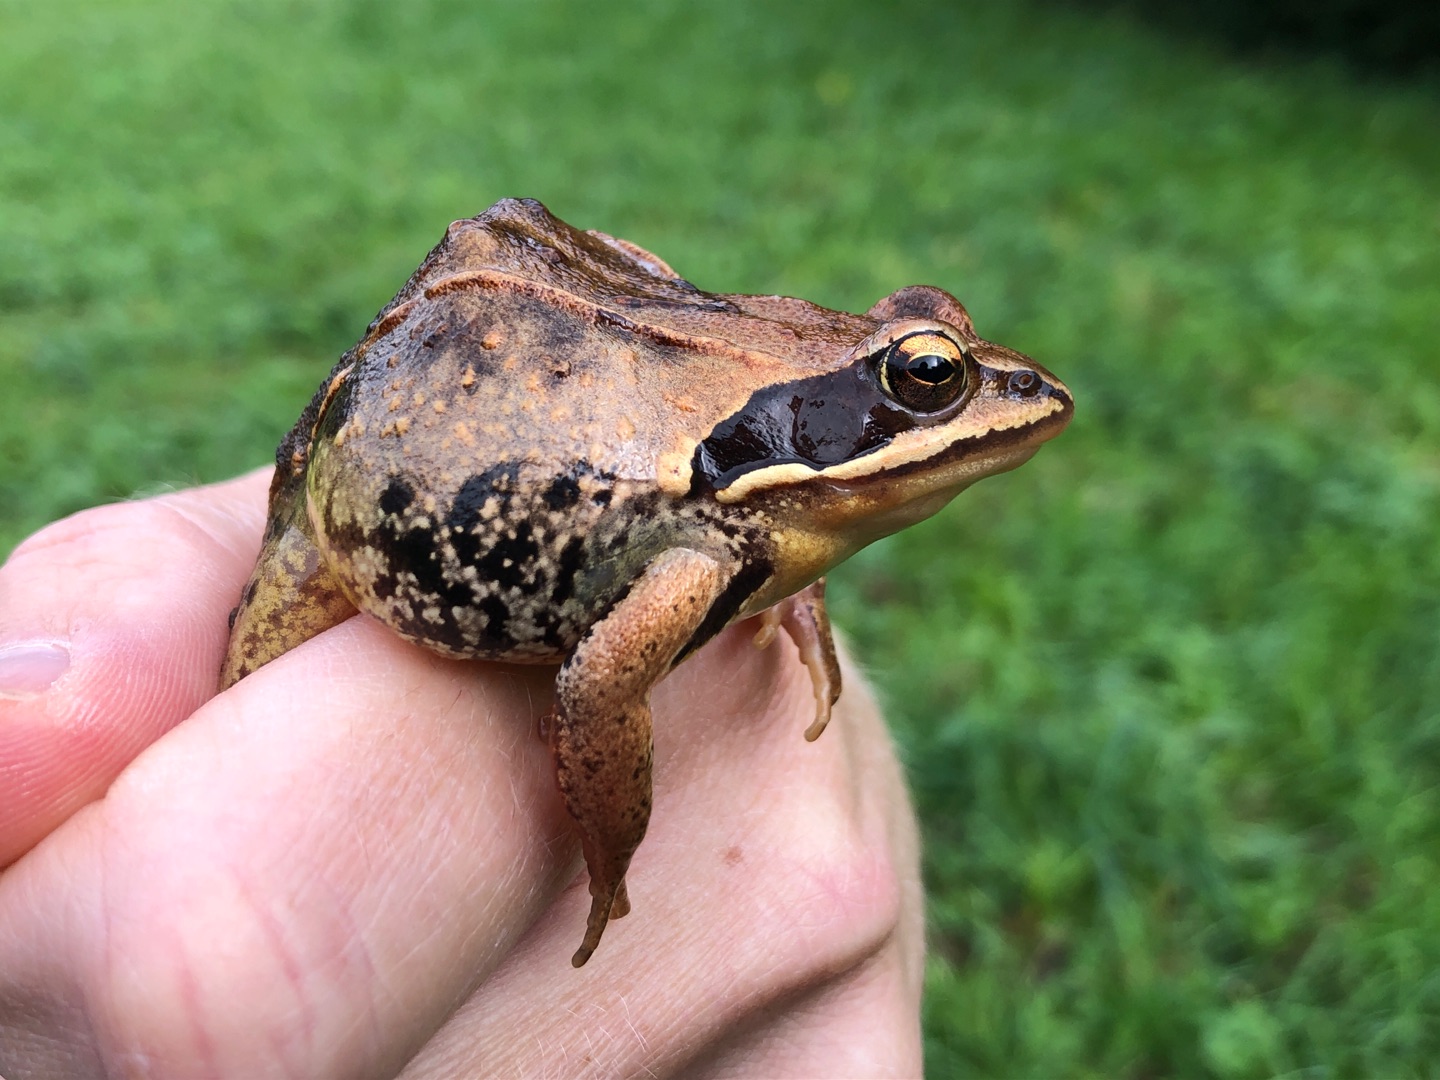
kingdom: Animalia
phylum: Chordata
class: Amphibia
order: Anura
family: Ranidae
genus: Rana
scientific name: Rana arvalis
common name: Spidssnudet frø
